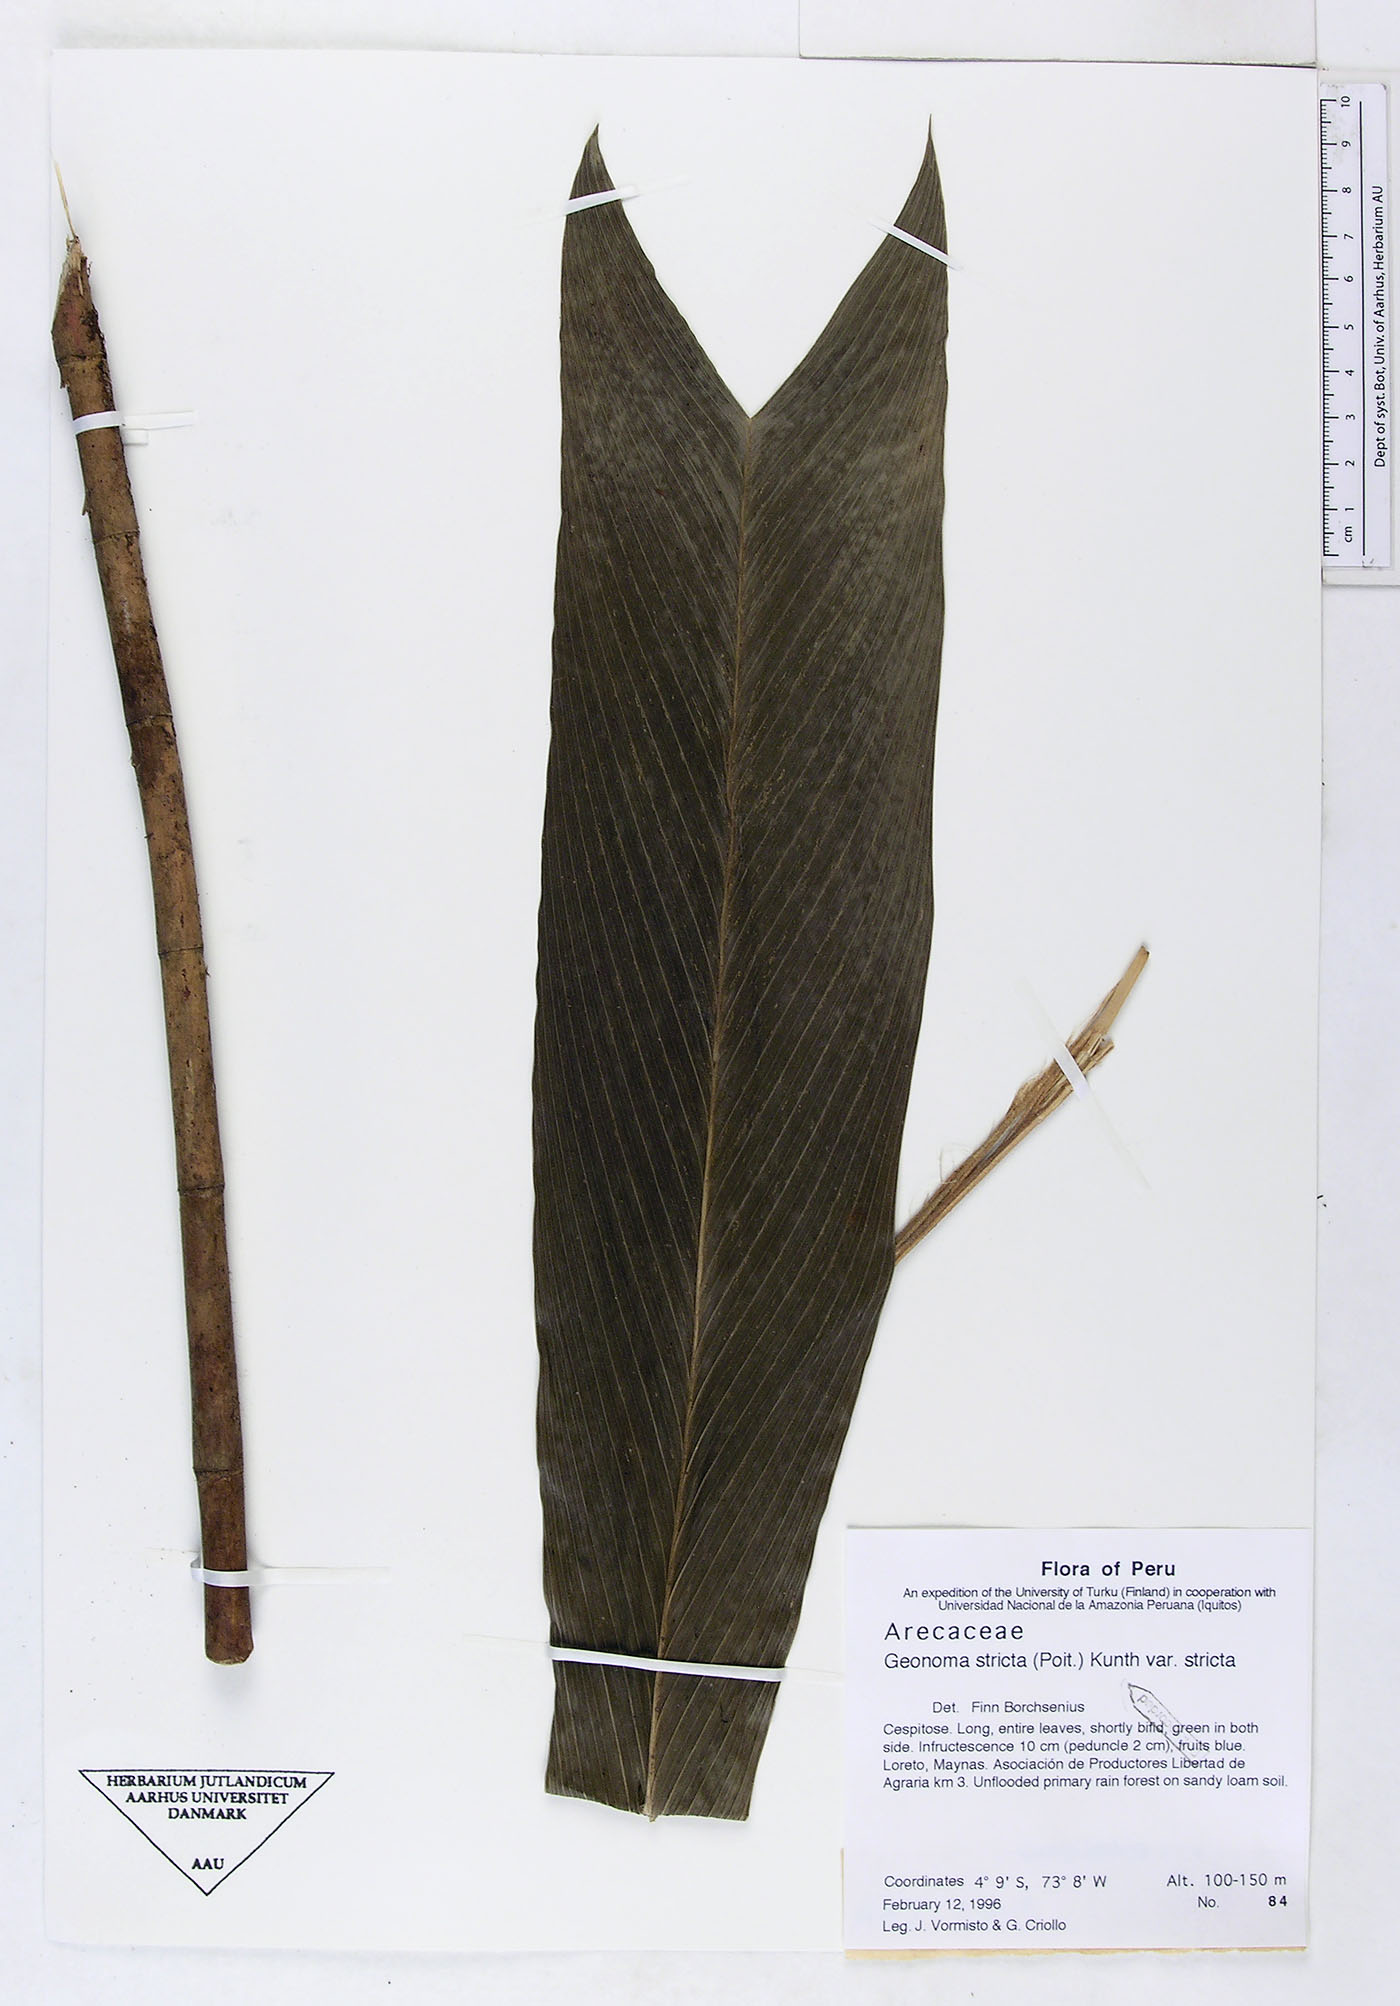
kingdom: Plantae
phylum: Tracheophyta
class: Liliopsida
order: Arecales
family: Arecaceae
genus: Geonoma
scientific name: Geonoma stricta
